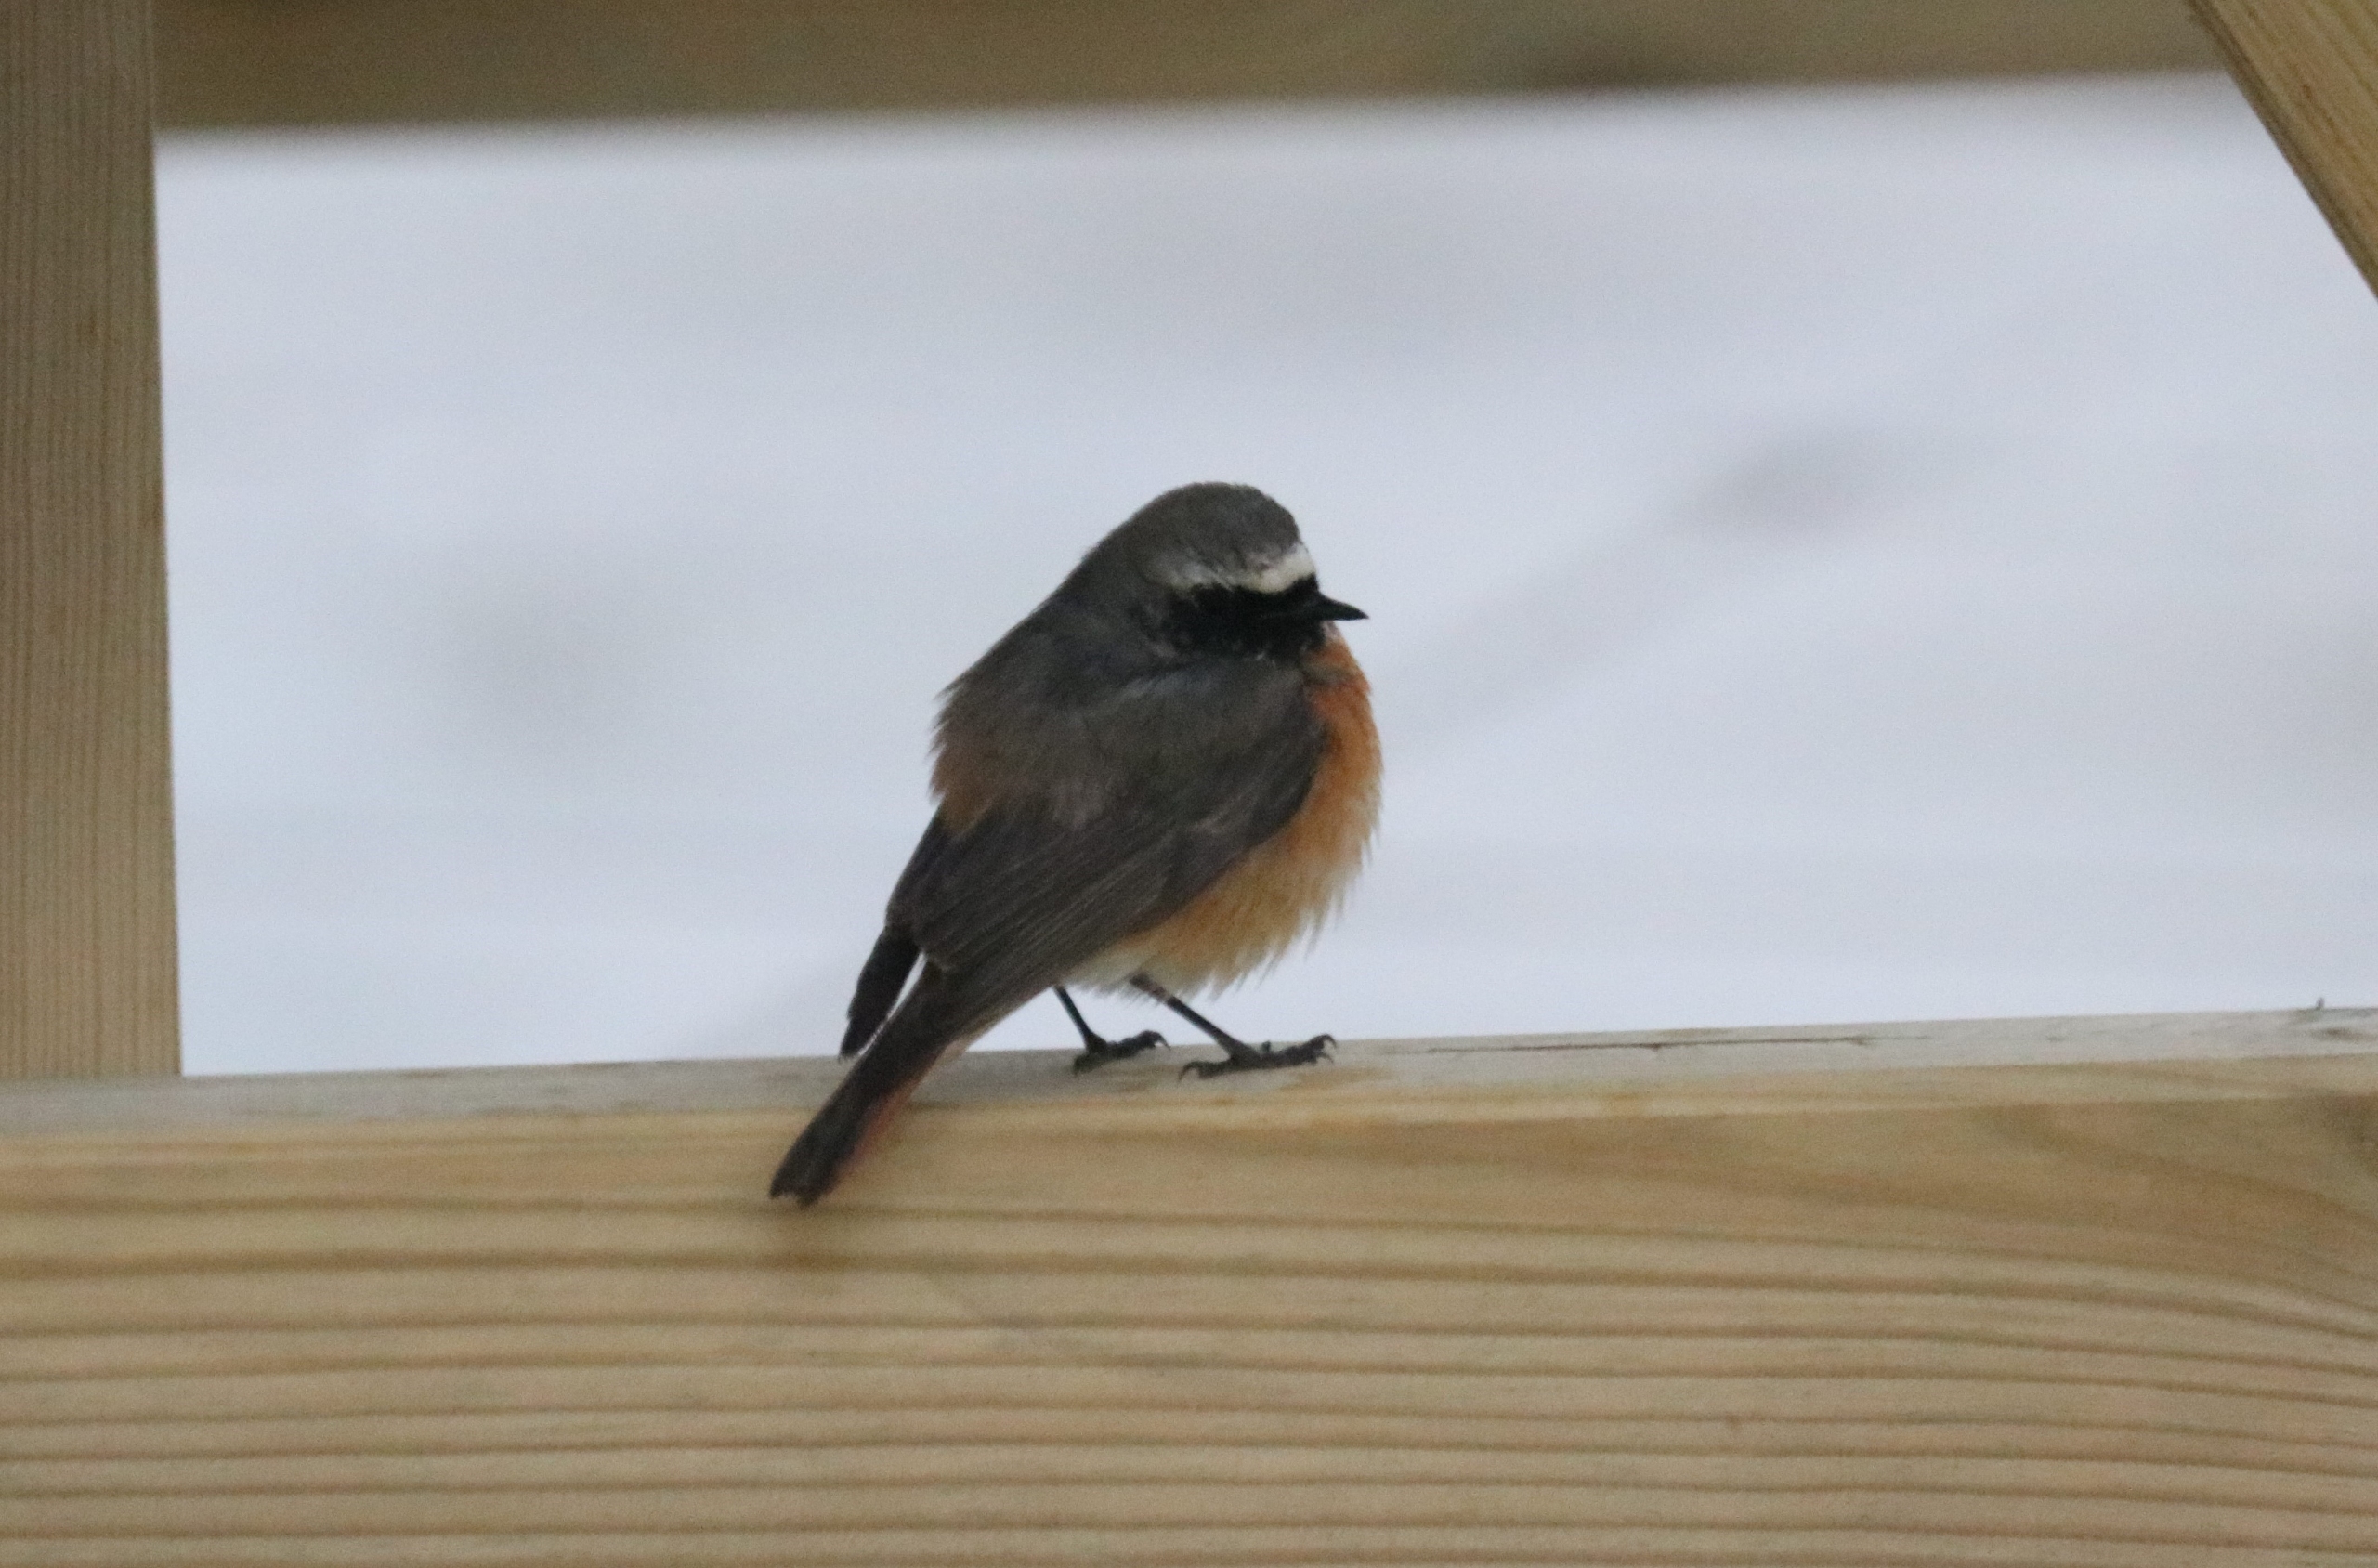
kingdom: Animalia
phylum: Chordata
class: Aves
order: Passeriformes
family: Muscicapidae
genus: Phoenicurus
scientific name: Phoenicurus phoenicurus
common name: Rødstjert
